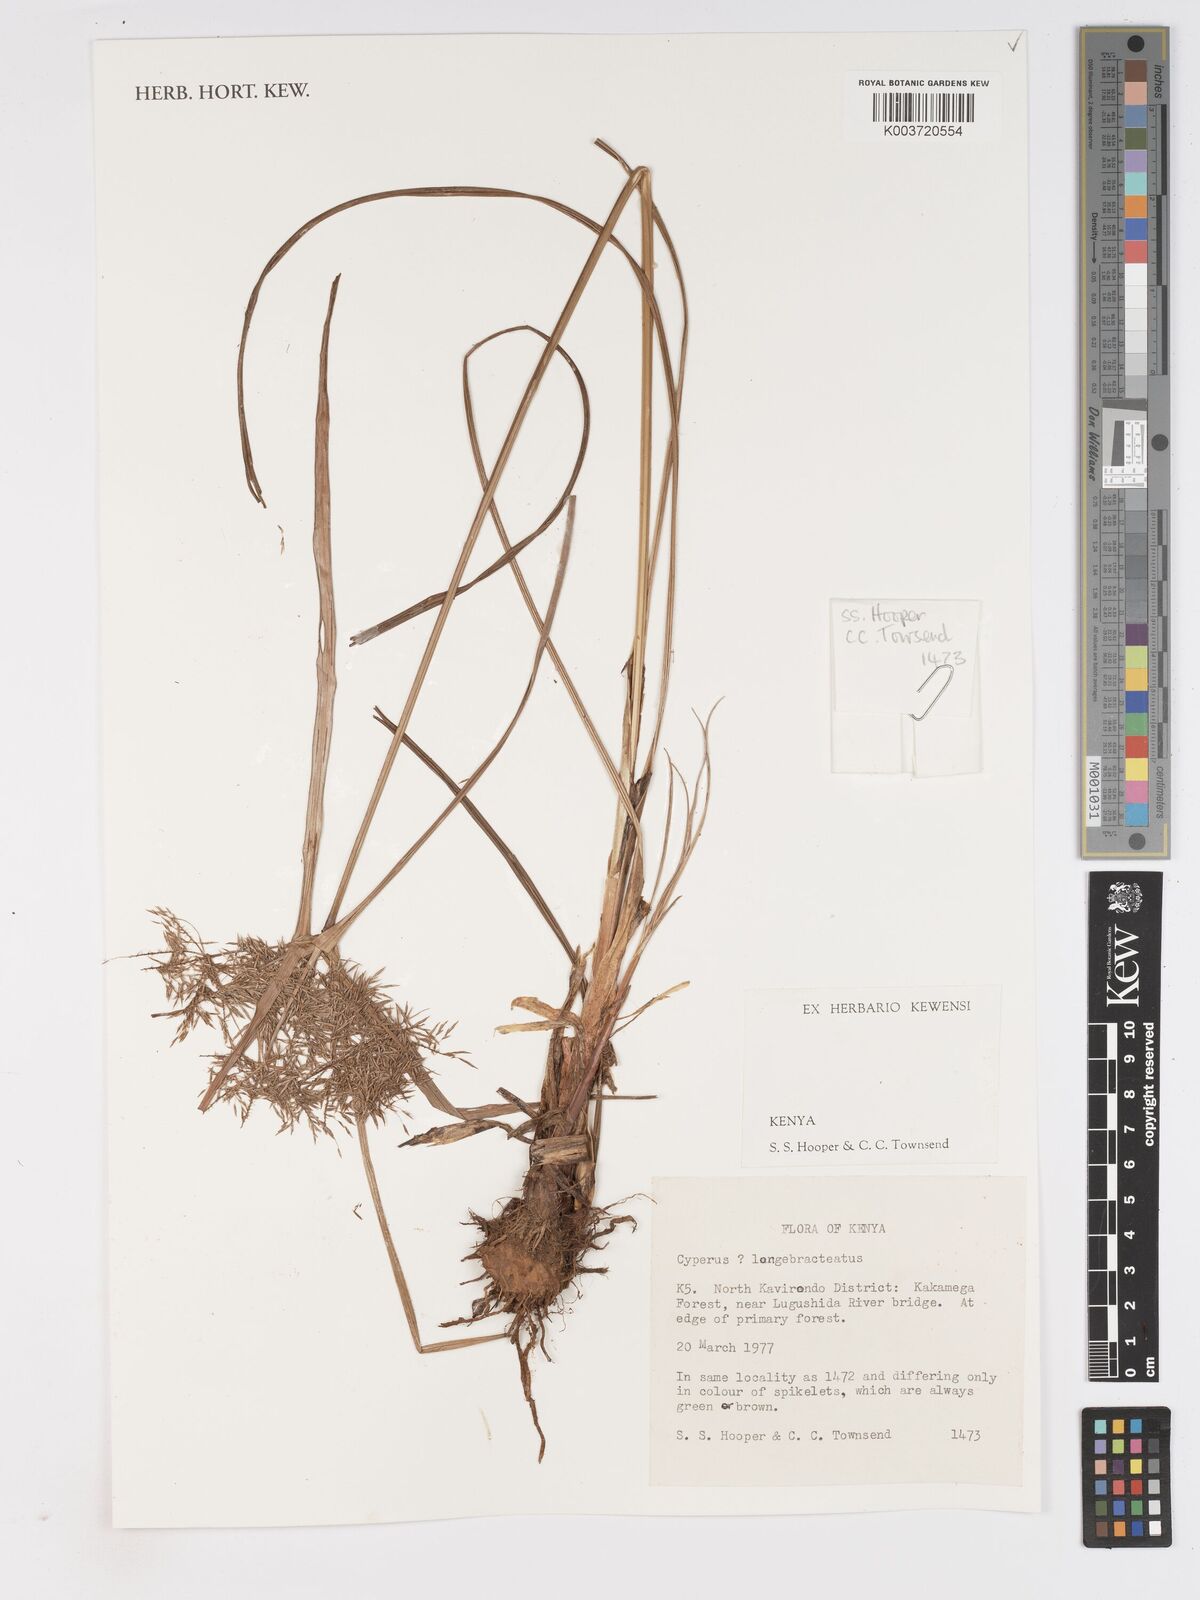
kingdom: Plantae
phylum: Tracheophyta
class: Liliopsida
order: Poales
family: Cyperaceae
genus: Cyperus
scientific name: Cyperus ferrugineoviridis
